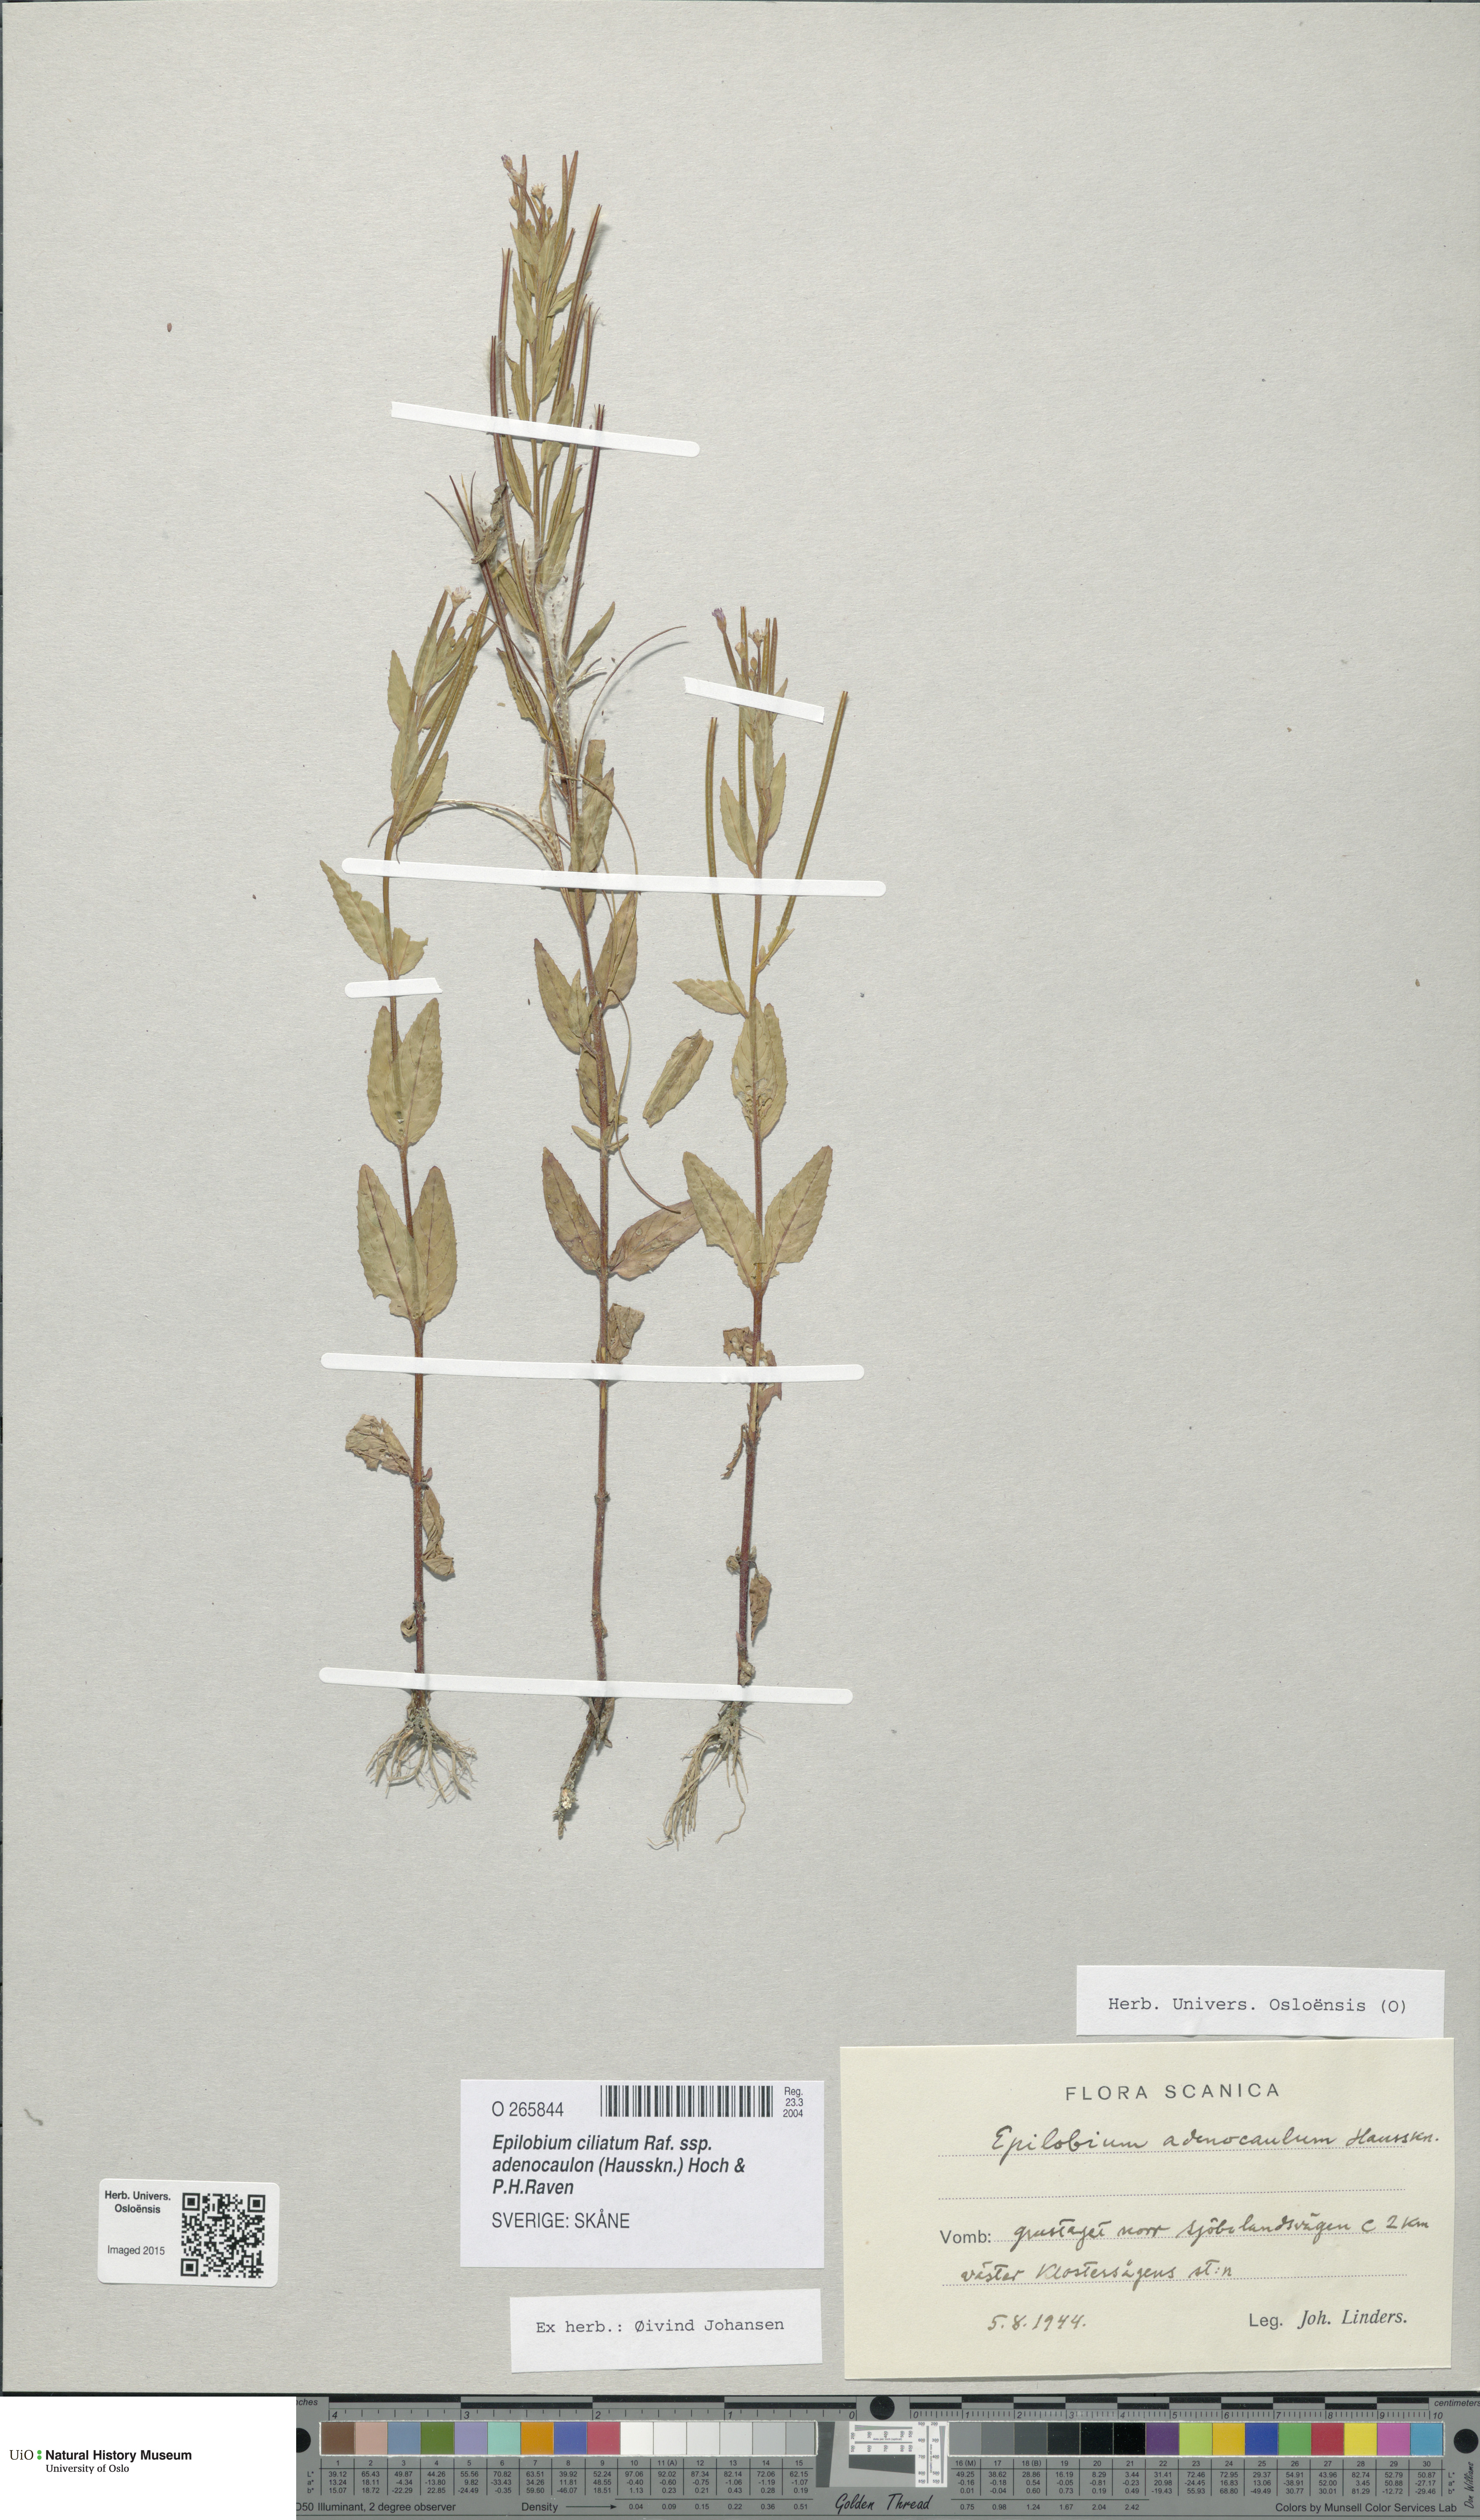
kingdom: Plantae
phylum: Tracheophyta
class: Magnoliopsida
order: Myrtales
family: Onagraceae
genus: Epilobium
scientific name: Epilobium ciliatum
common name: American willowherb
